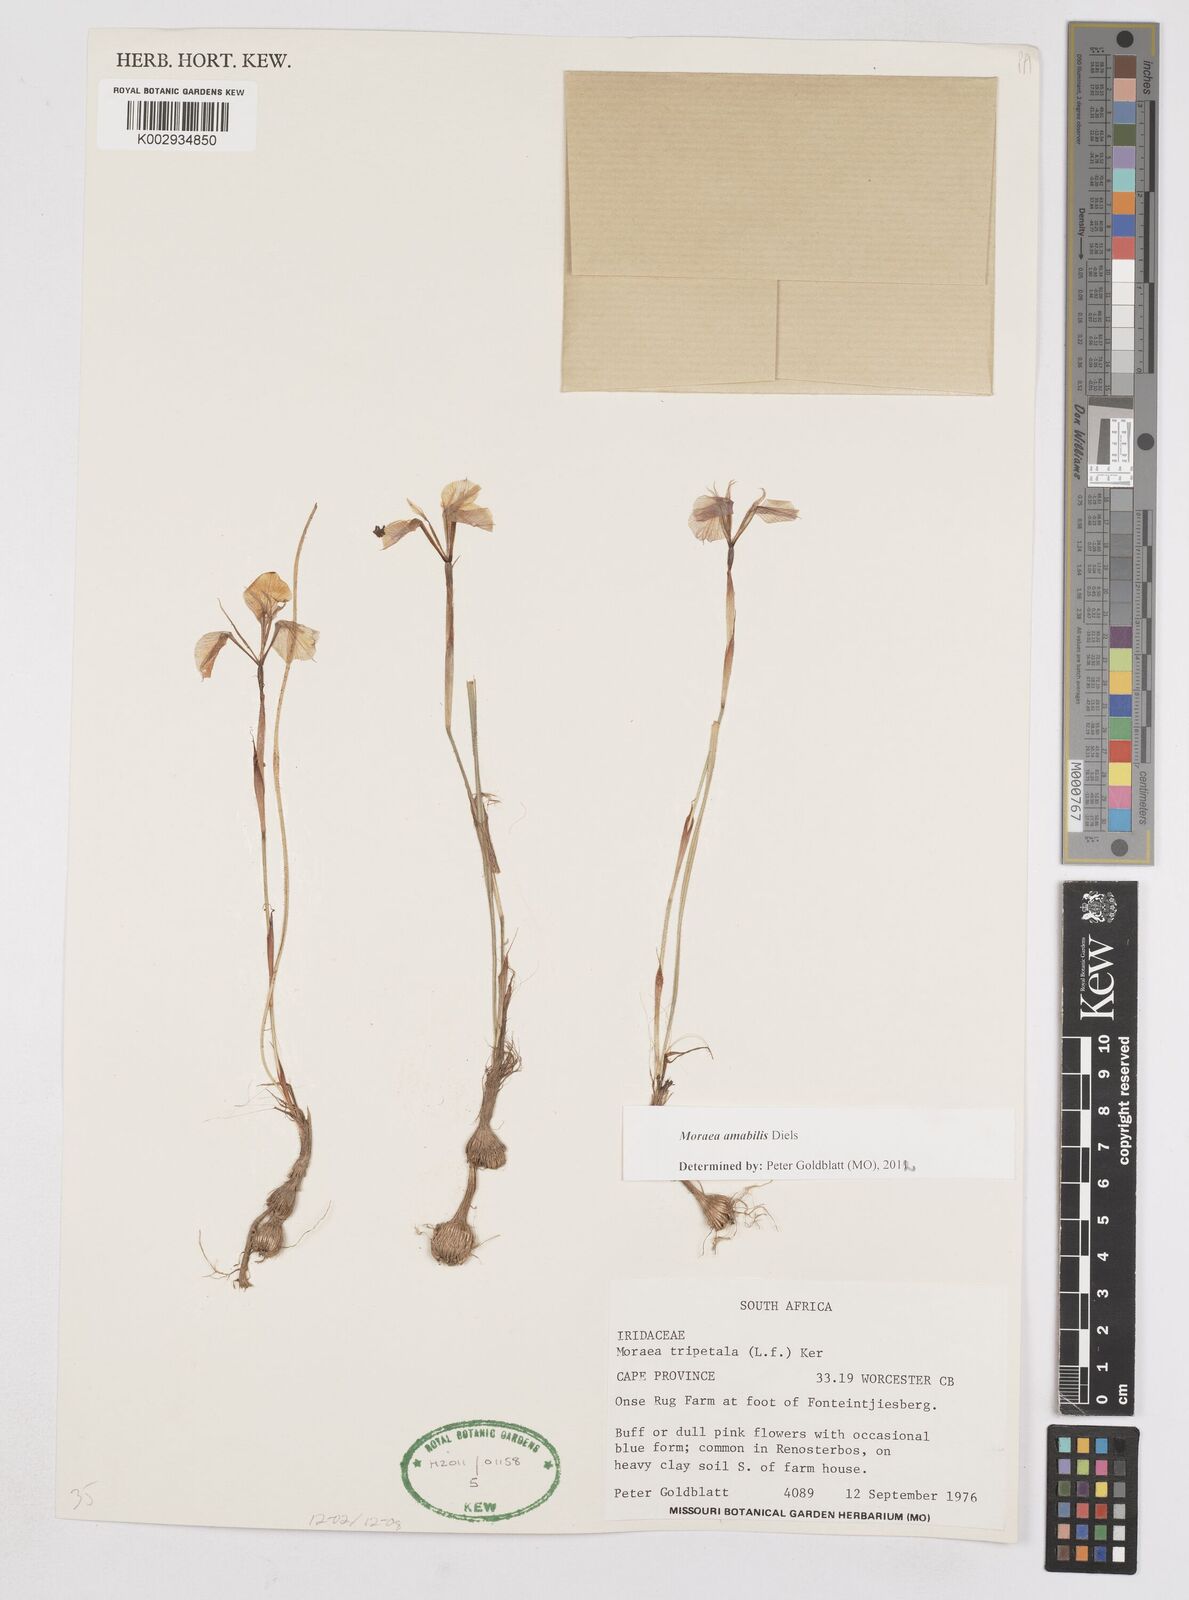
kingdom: Plantae
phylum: Tracheophyta
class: Liliopsida
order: Asparagales
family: Iridaceae
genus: Moraea
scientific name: Moraea amabilis
